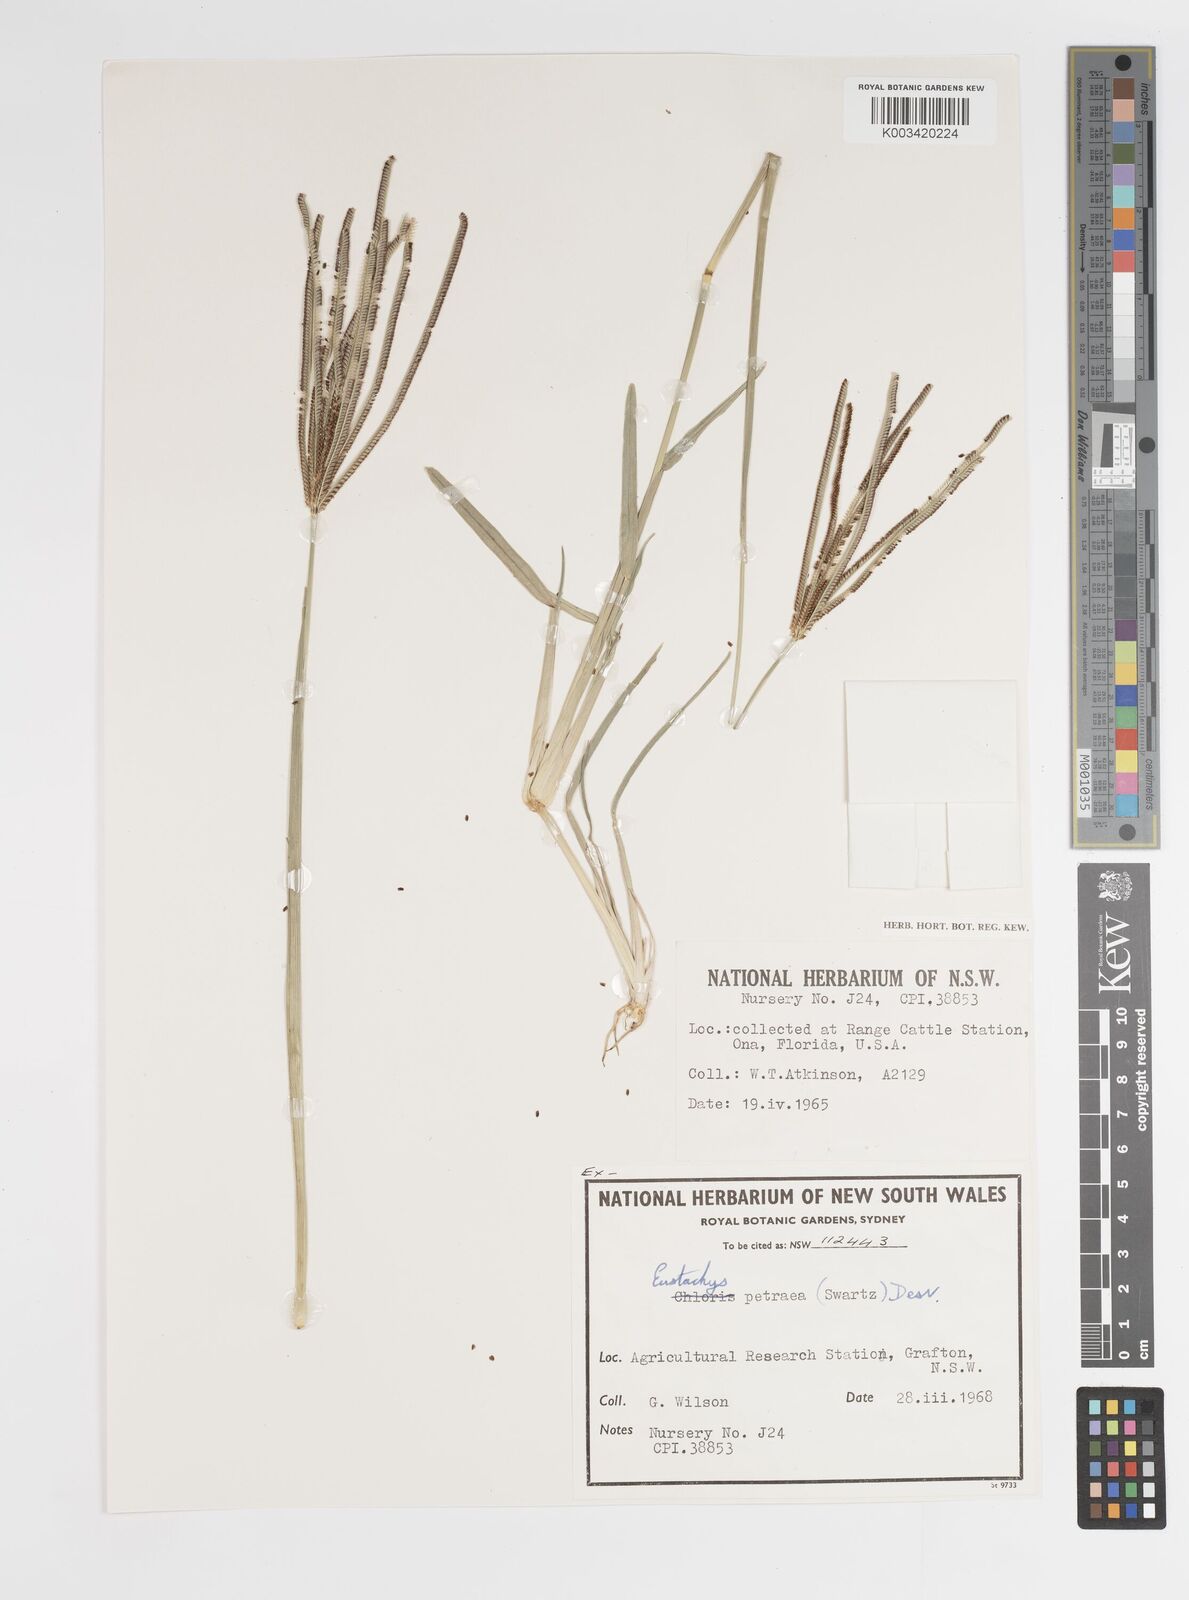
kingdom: Plantae
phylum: Tracheophyta
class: Liliopsida
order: Poales
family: Poaceae
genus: Eustachys
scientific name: Eustachys
